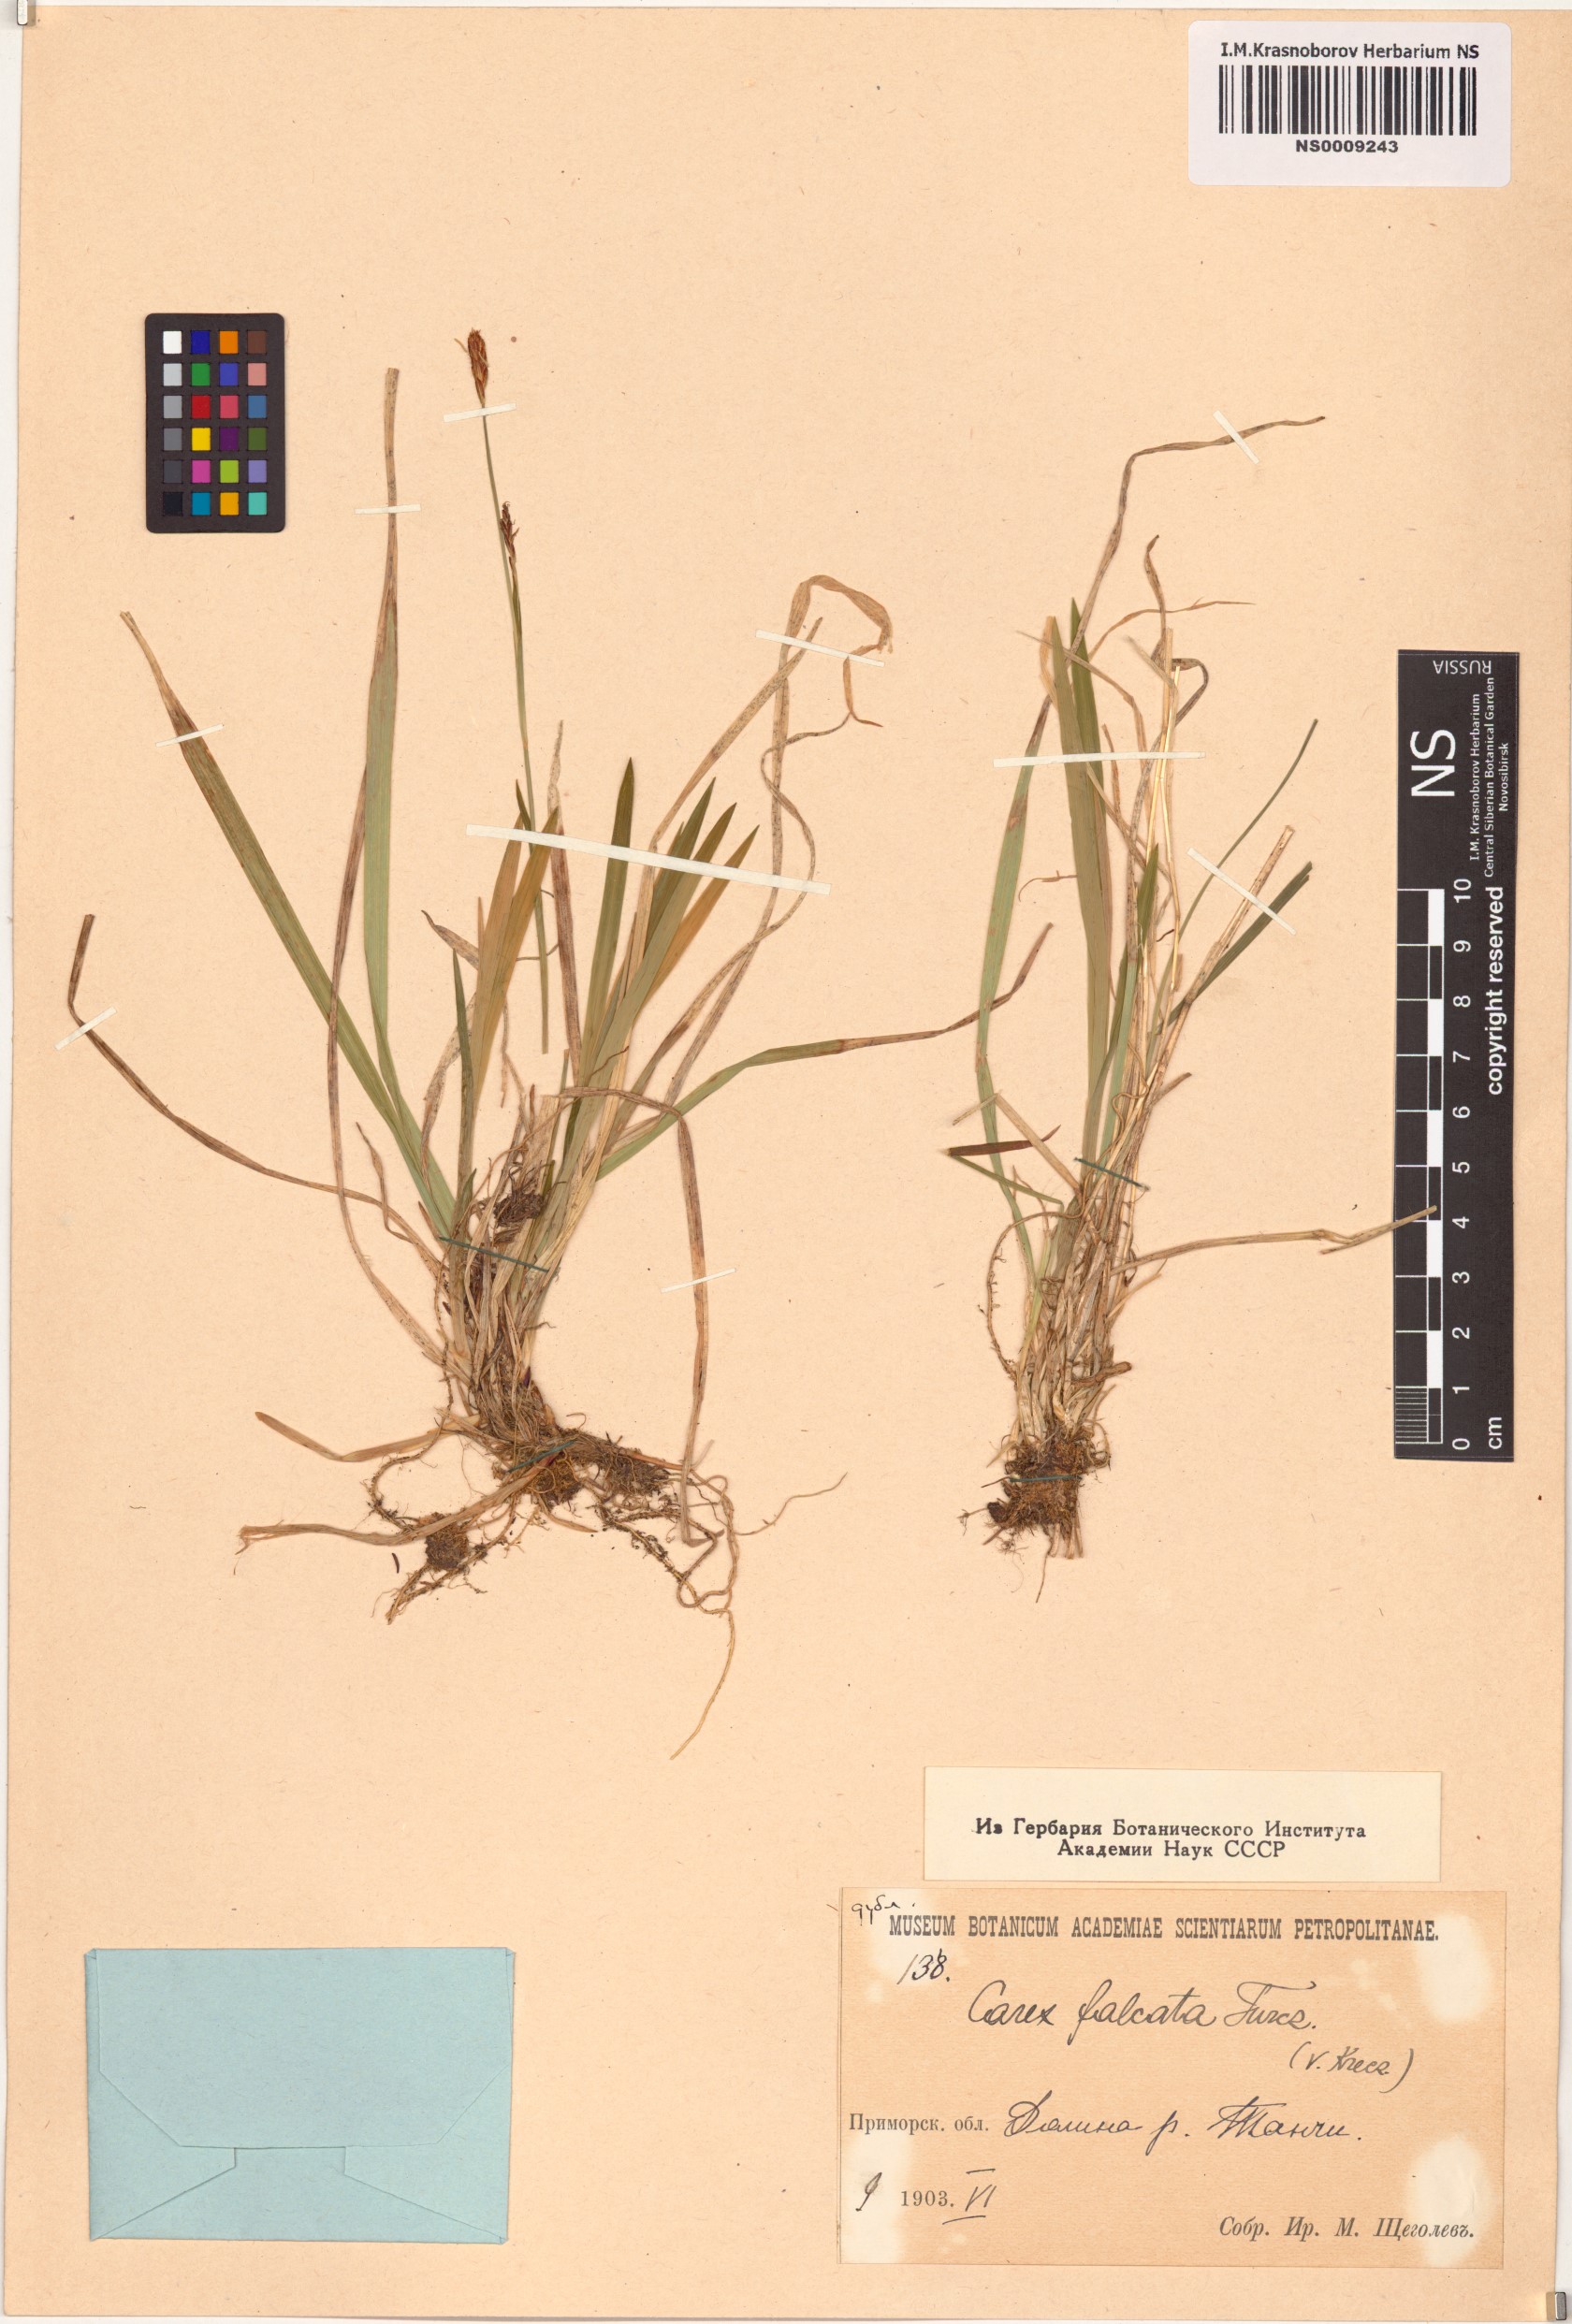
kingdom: Plantae
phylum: Tracheophyta
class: Liliopsida
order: Poales
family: Cyperaceae
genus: Carex
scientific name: Carex vaginata
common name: Sheathed sedge
